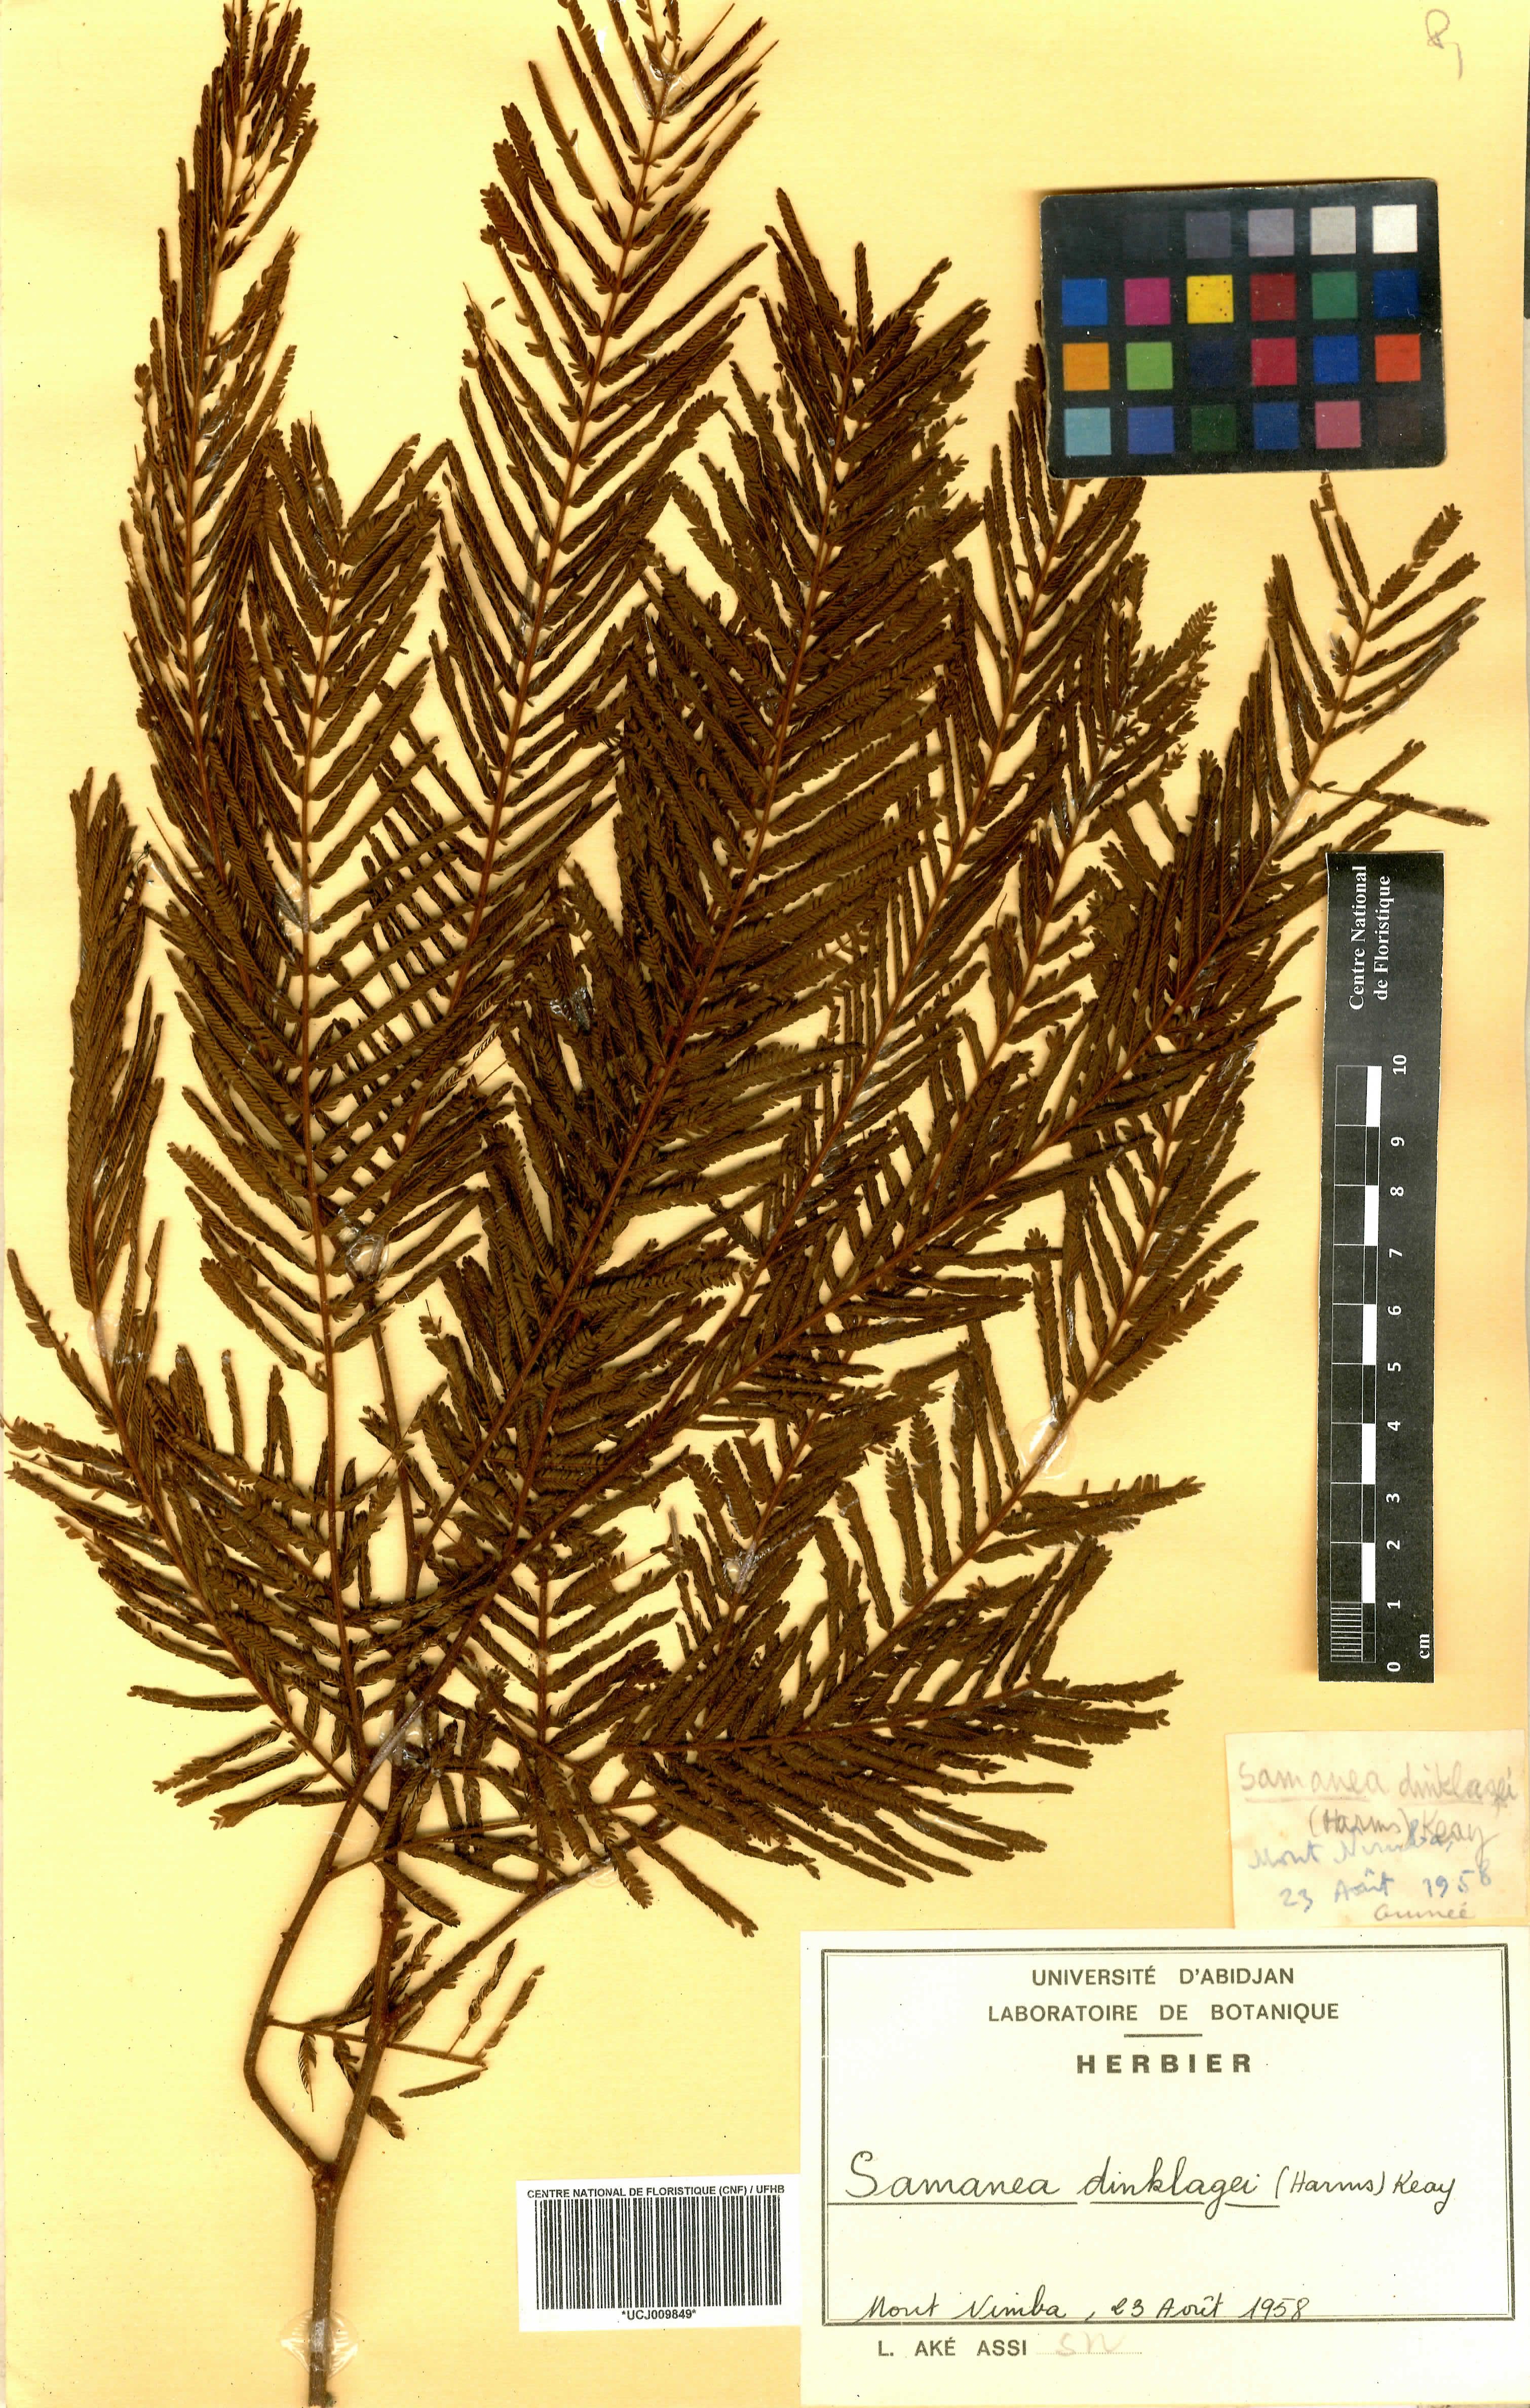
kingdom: Plantae
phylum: Tracheophyta
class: Magnoliopsida
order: Fabales
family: Fabaceae
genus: Albizia
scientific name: Albizia dinklagei
